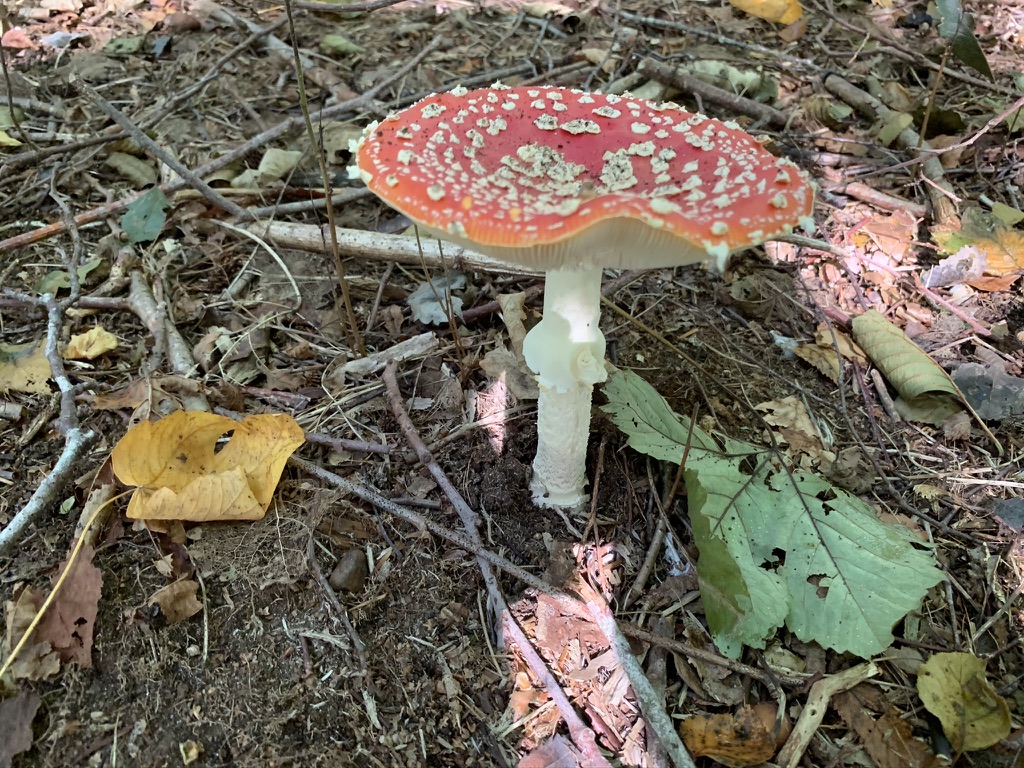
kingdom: Fungi
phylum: Basidiomycota
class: Agaricomycetes
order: Agaricales
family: Amanitaceae
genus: Amanita
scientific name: Amanita muscaria
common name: rød fluesvamp
